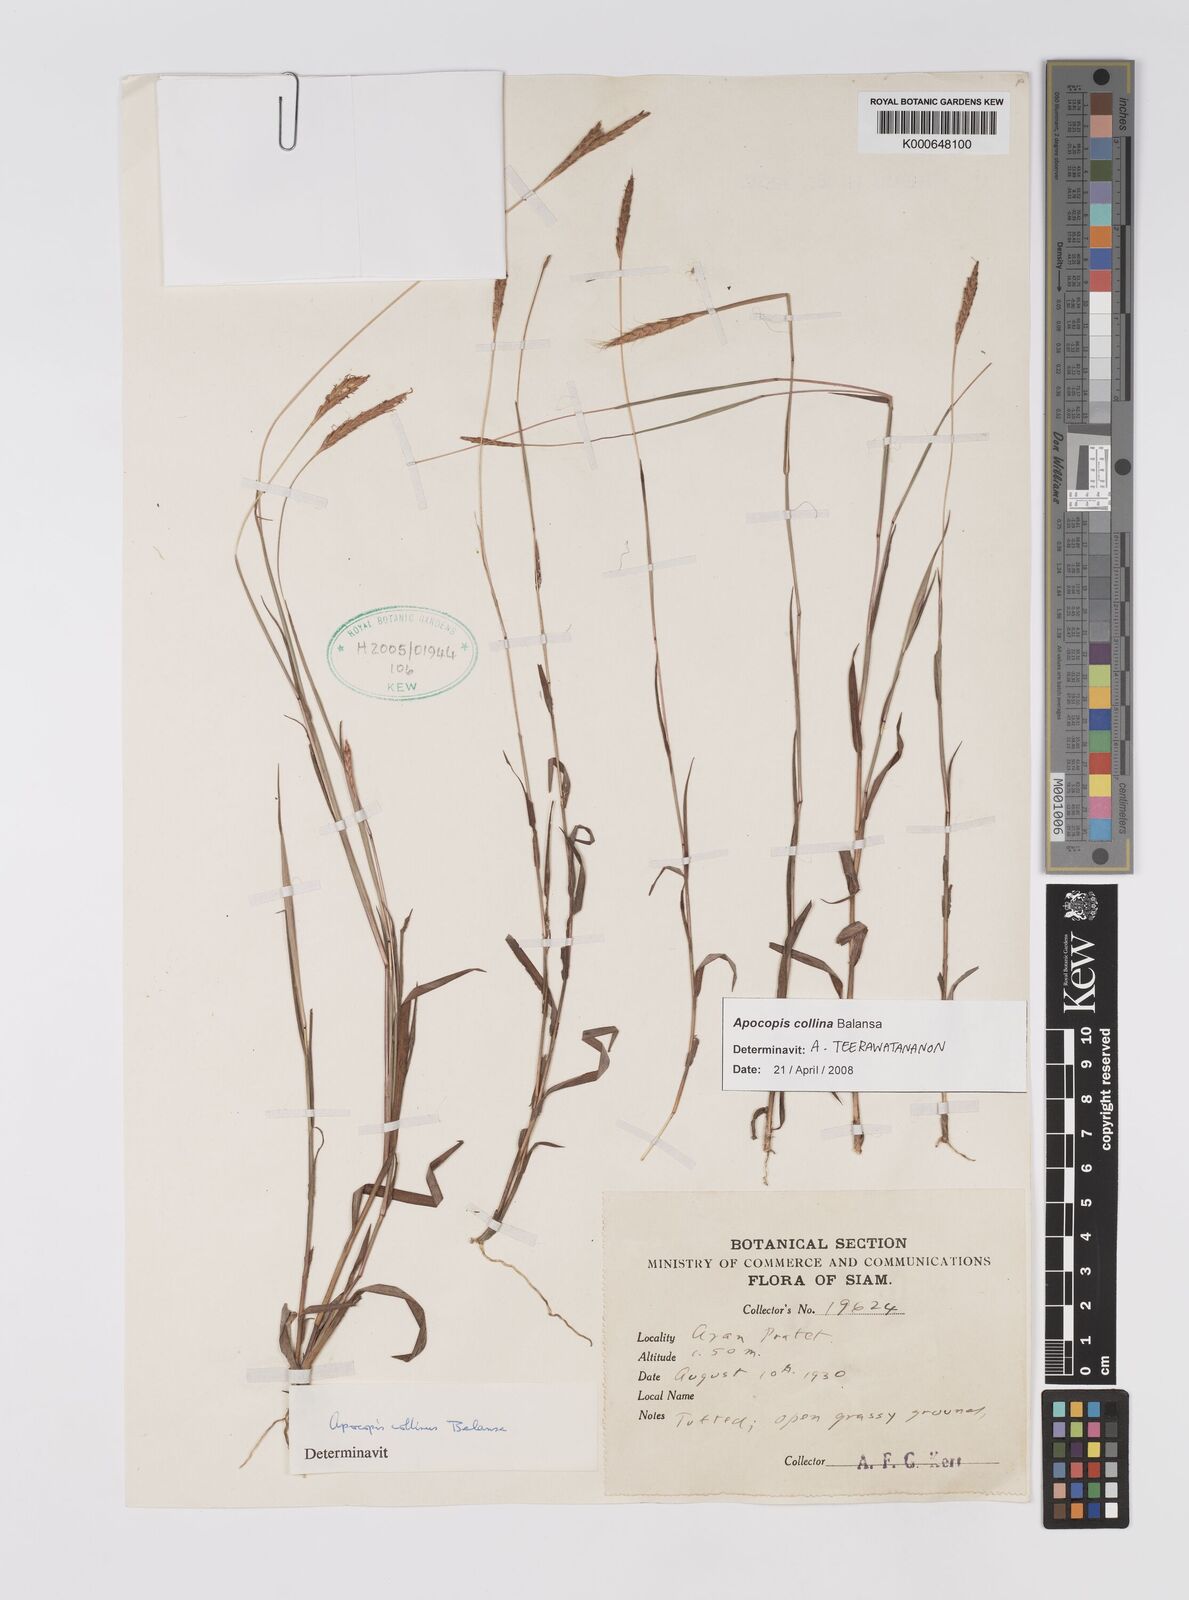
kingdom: Plantae
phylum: Tracheophyta
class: Liliopsida
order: Poales
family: Poaceae
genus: Apocopis
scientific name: Apocopis collinus
